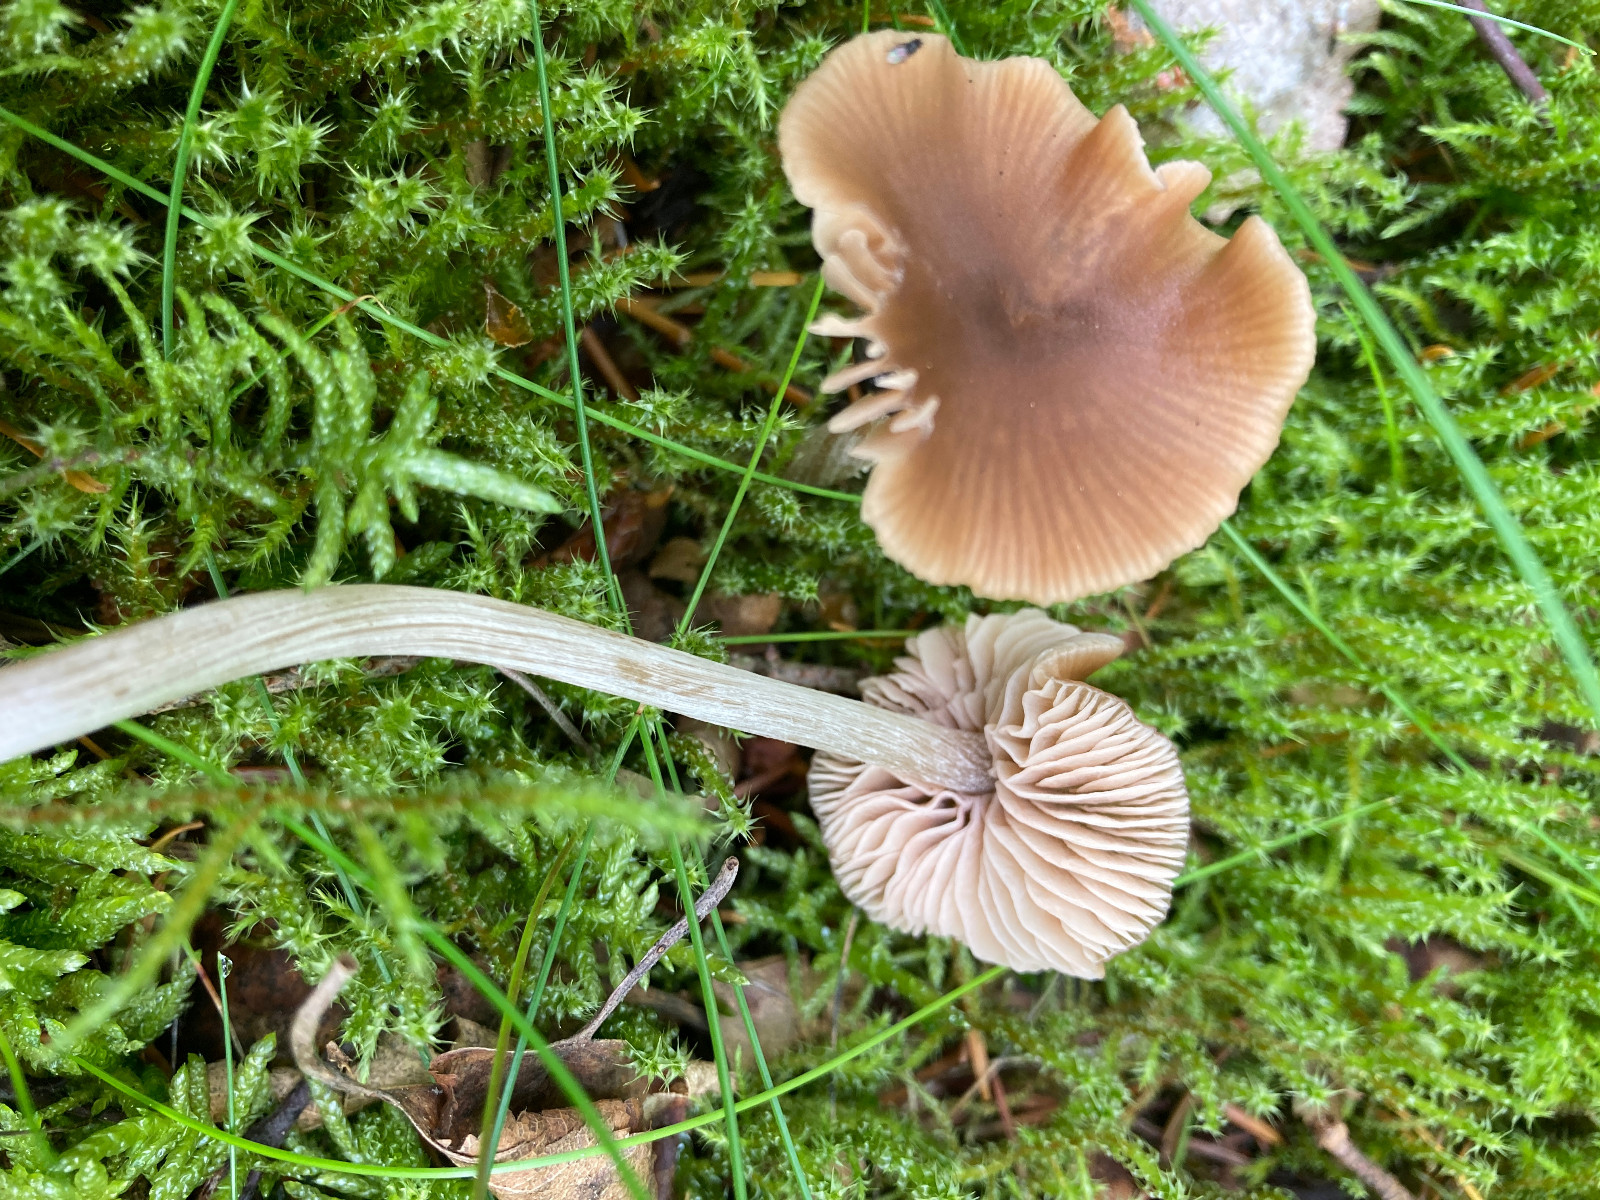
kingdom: Fungi
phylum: Basidiomycota
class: Agaricomycetes
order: Agaricales
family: Entolomataceae
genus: Entoloma
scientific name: Entoloma
